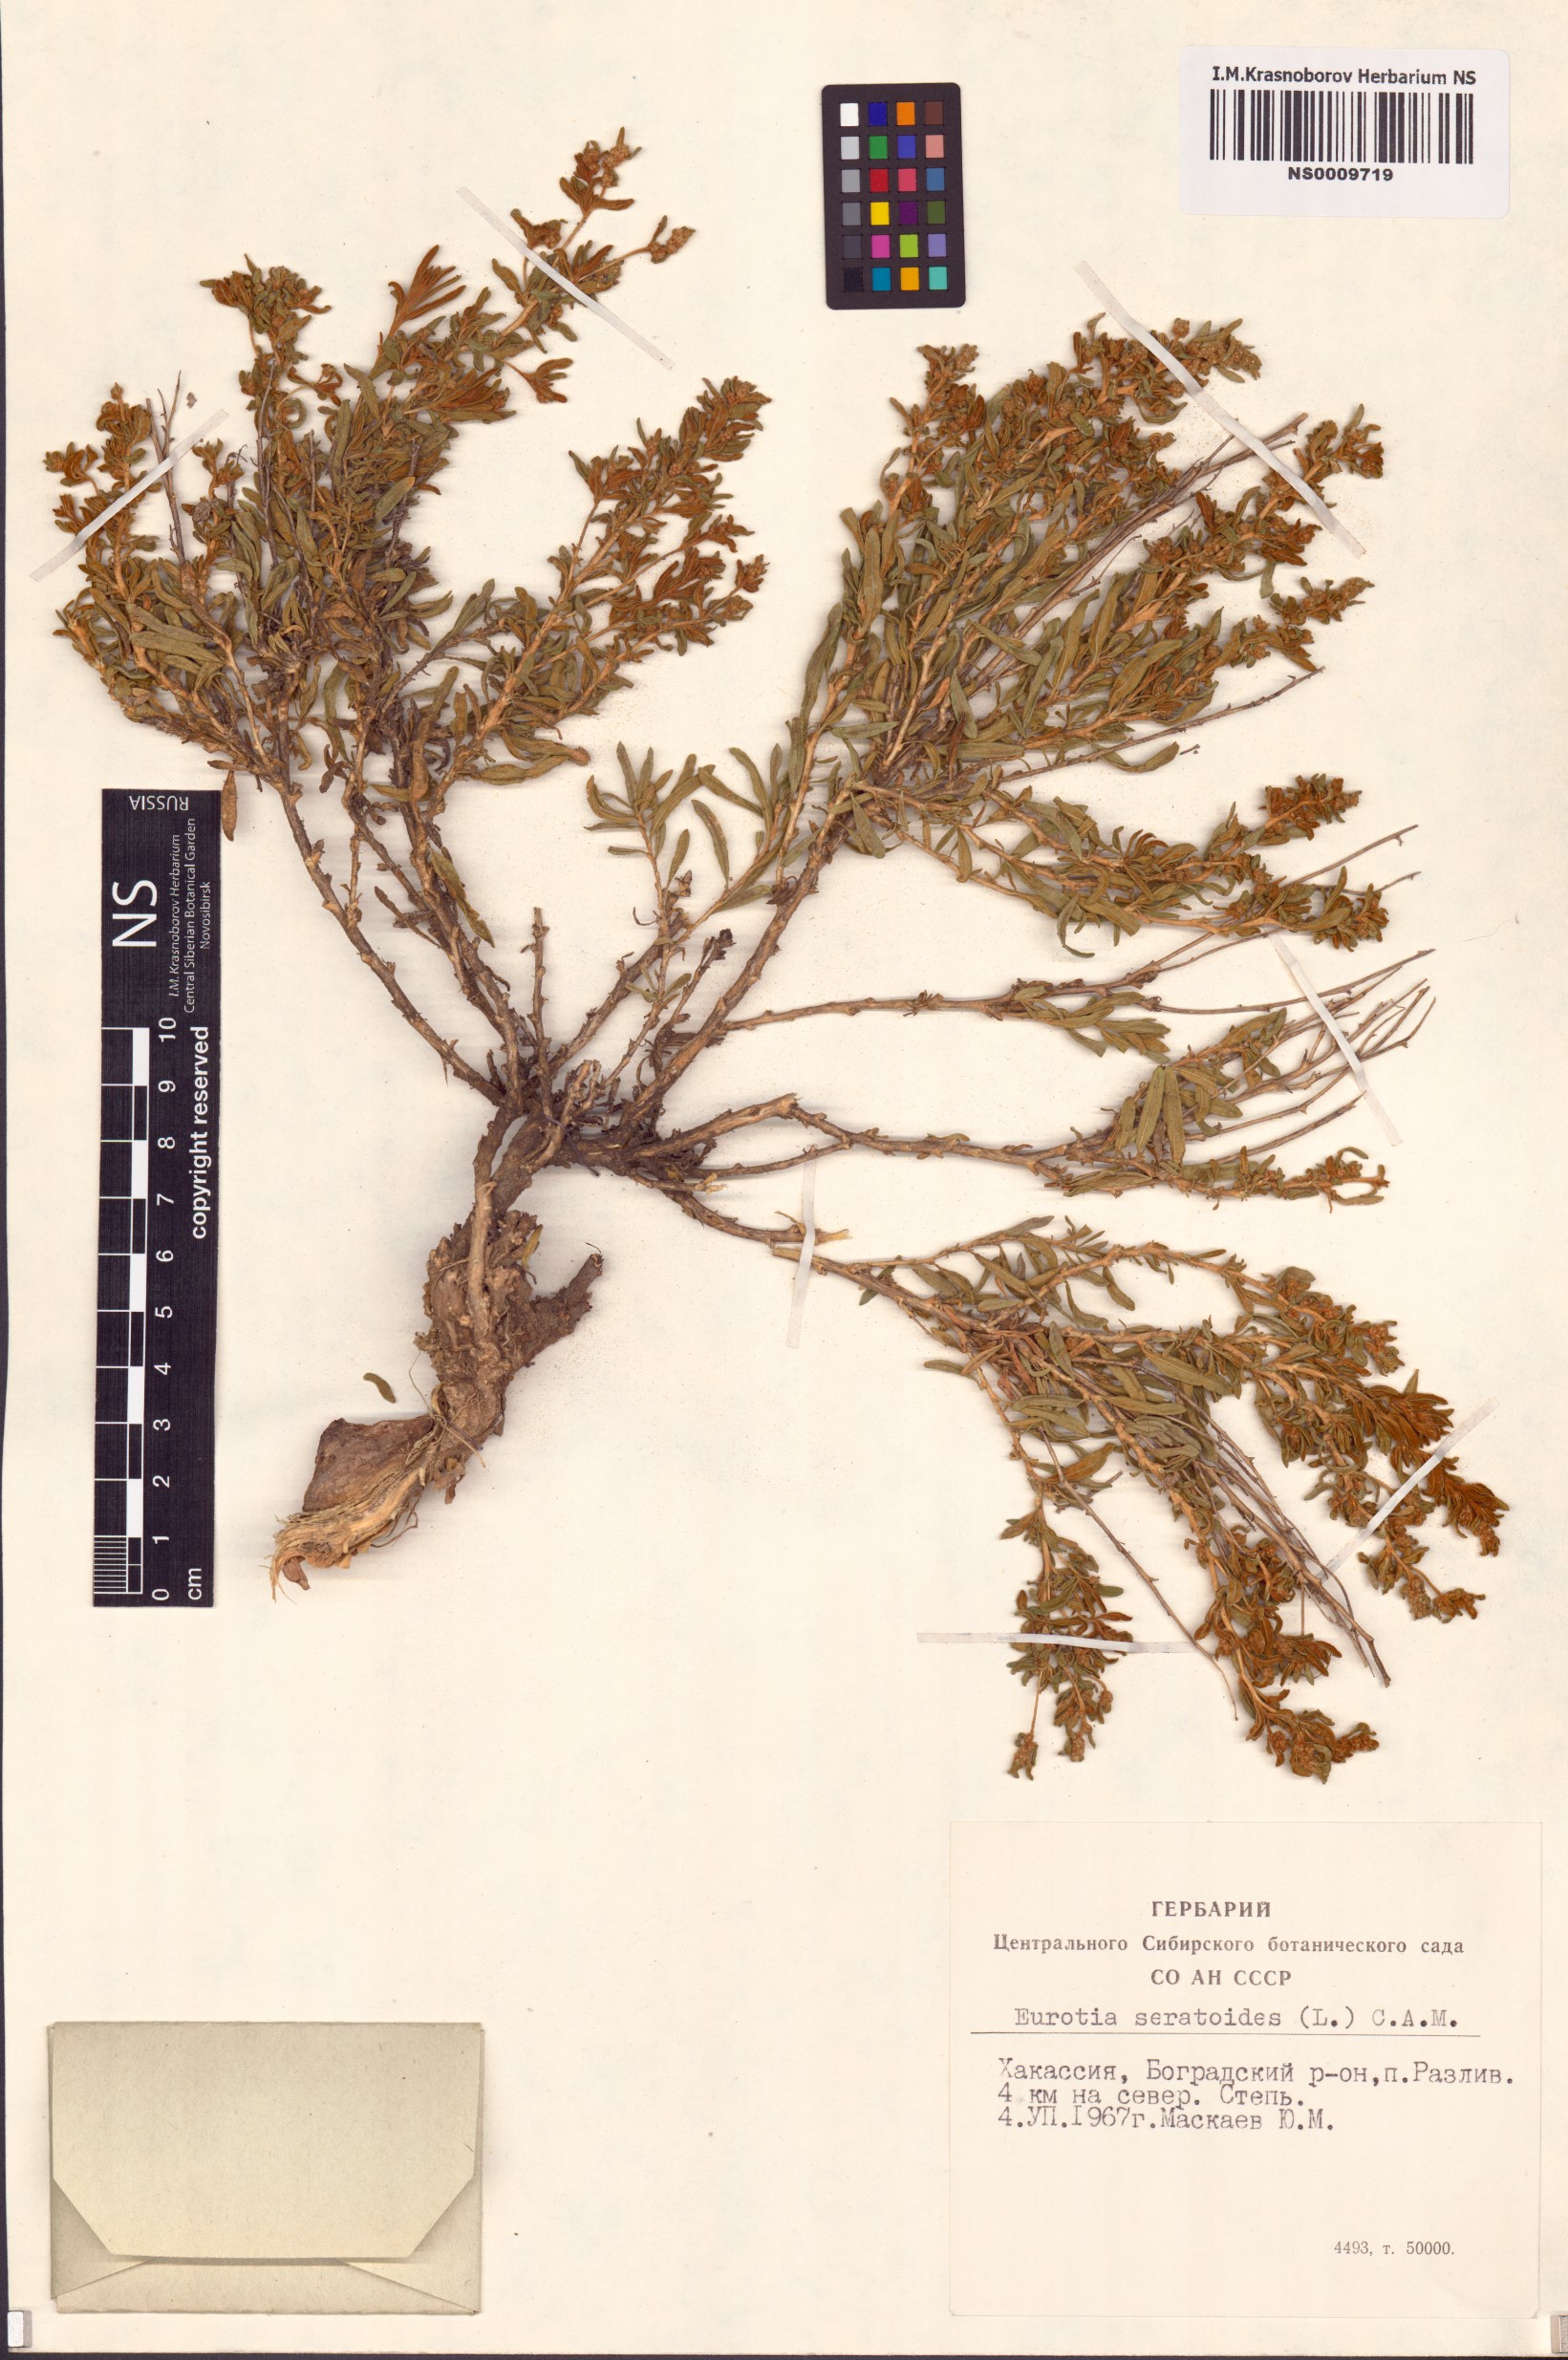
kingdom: Plantae
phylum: Tracheophyta
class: Magnoliopsida
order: Caryophyllales
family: Amaranthaceae
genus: Krascheninnikovia
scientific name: Krascheninnikovia ceratoides
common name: Pamirian winterfat
